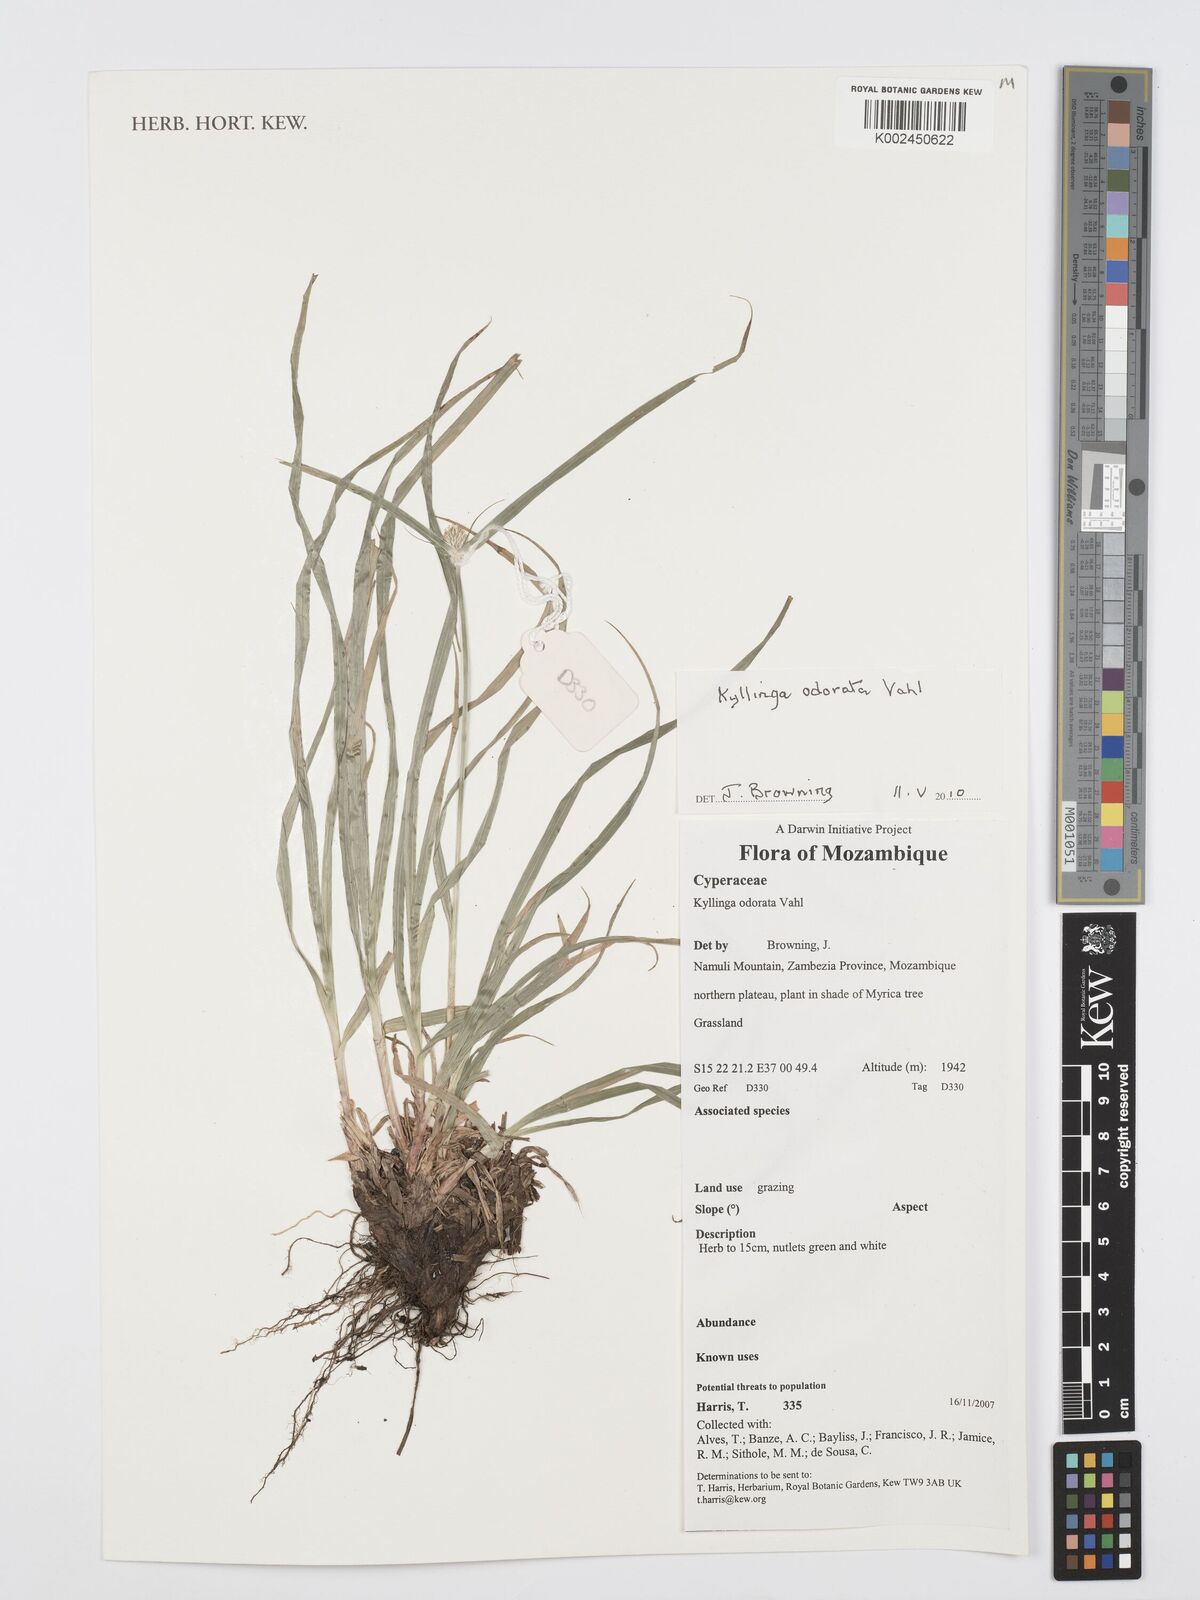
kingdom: Plantae
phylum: Tracheophyta
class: Liliopsida
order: Poales
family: Cyperaceae
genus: Cyperus
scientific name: Cyperus
